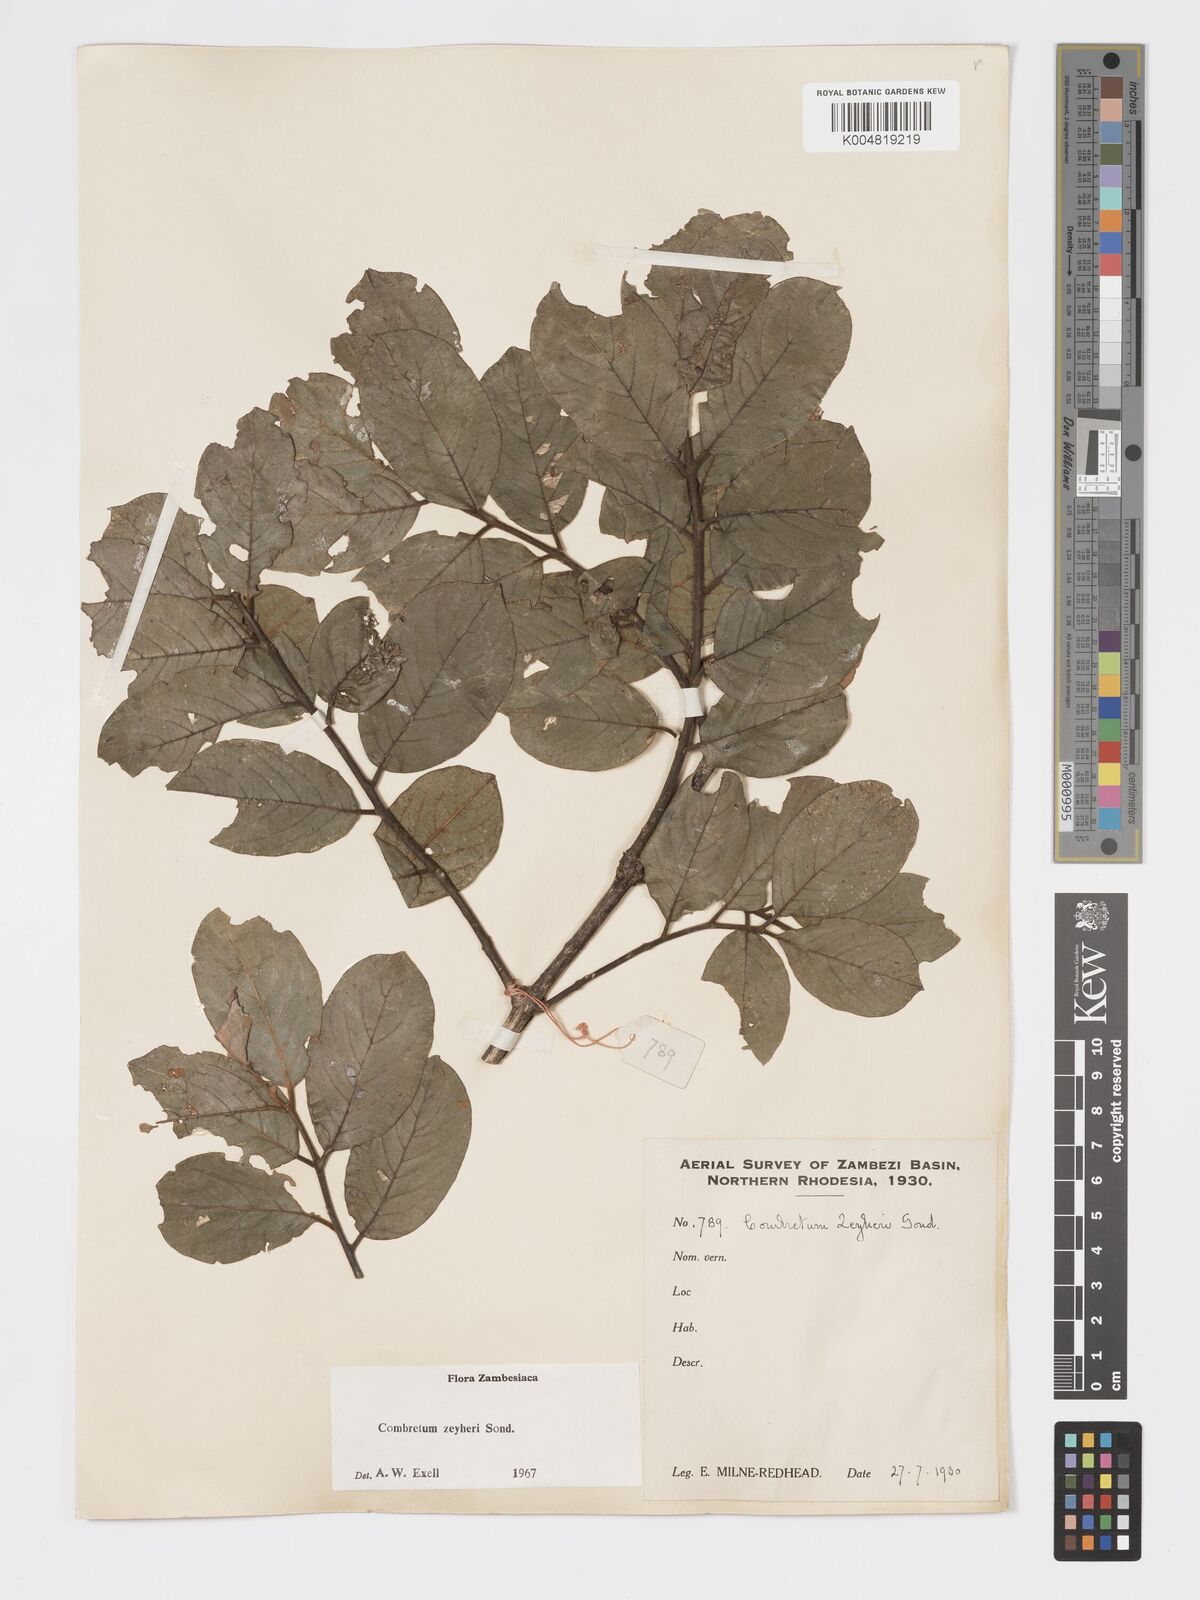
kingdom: Plantae
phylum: Tracheophyta
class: Magnoliopsida
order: Myrtales
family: Combretaceae
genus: Combretum
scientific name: Combretum zeyheri
